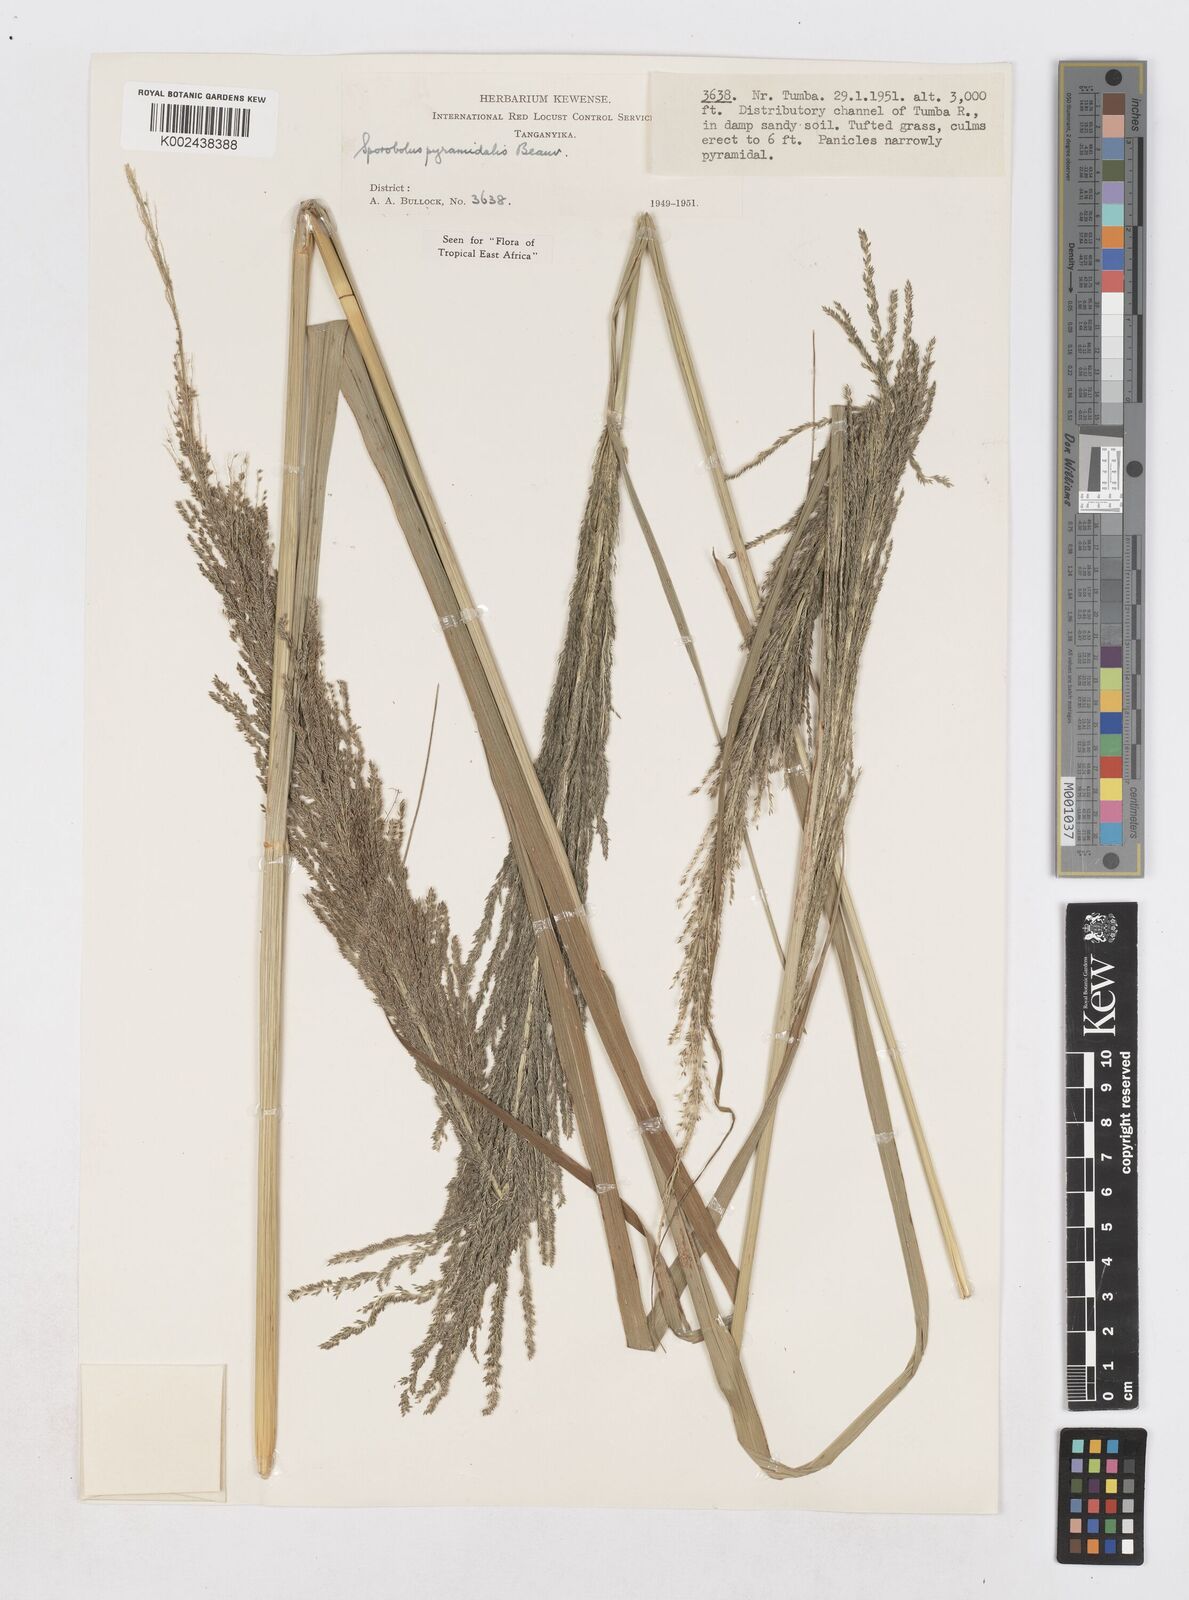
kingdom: Plantae
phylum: Tracheophyta
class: Liliopsida
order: Poales
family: Poaceae
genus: Sporobolus
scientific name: Sporobolus pyramidalis
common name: West indian dropseed
